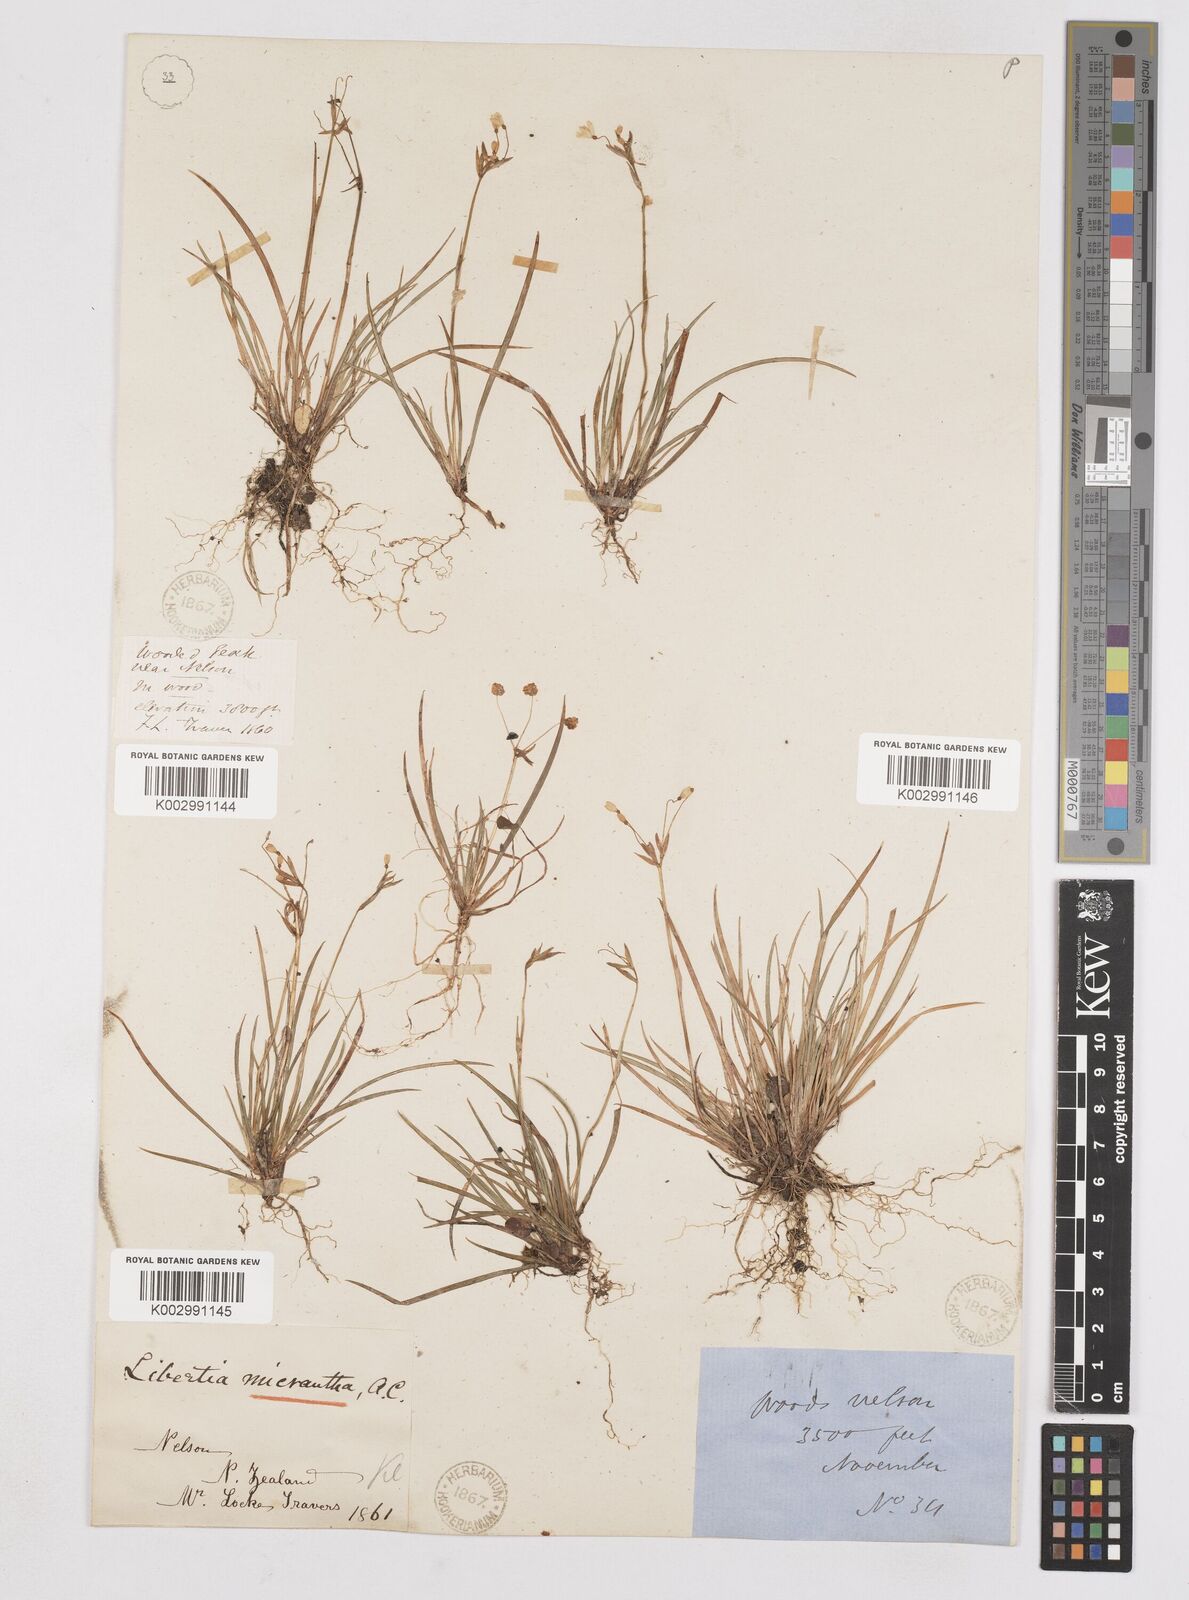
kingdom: Plantae
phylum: Tracheophyta
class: Liliopsida
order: Asparagales
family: Iridaceae
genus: Libertia
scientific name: Libertia pulchella
